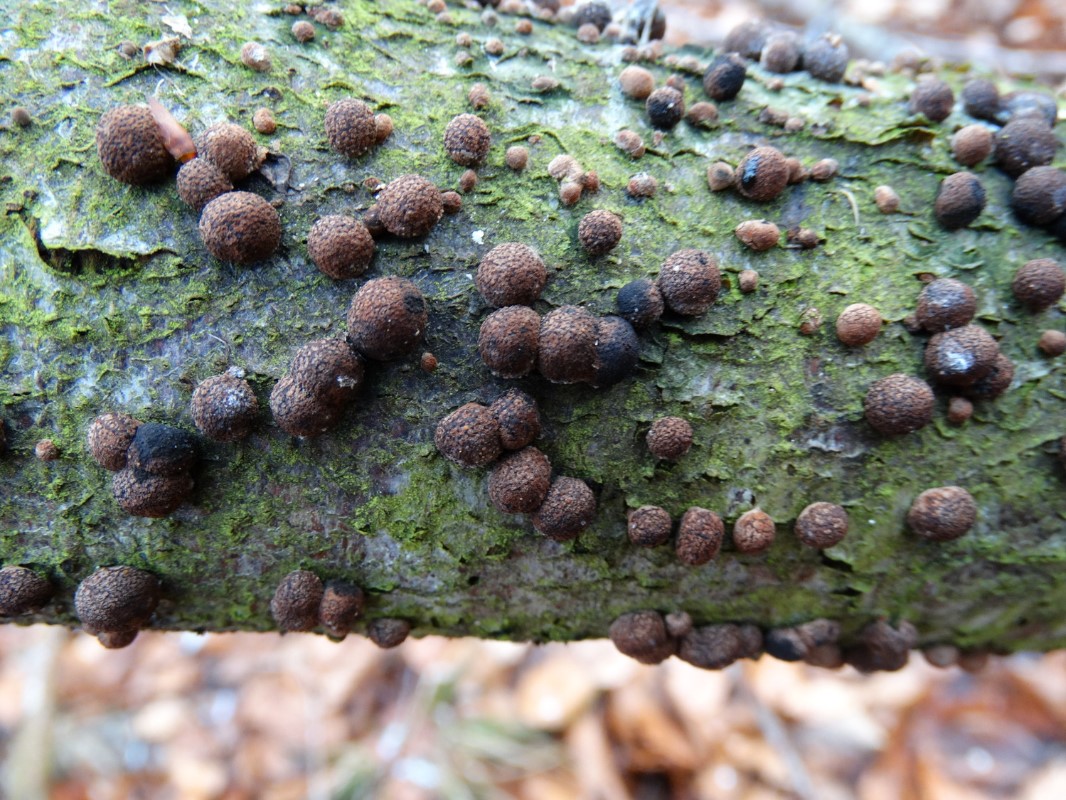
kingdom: Fungi
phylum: Ascomycota
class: Sordariomycetes
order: Xylariales
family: Hypoxylaceae
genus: Hypoxylon
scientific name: Hypoxylon fragiforme
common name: kuljordbær
